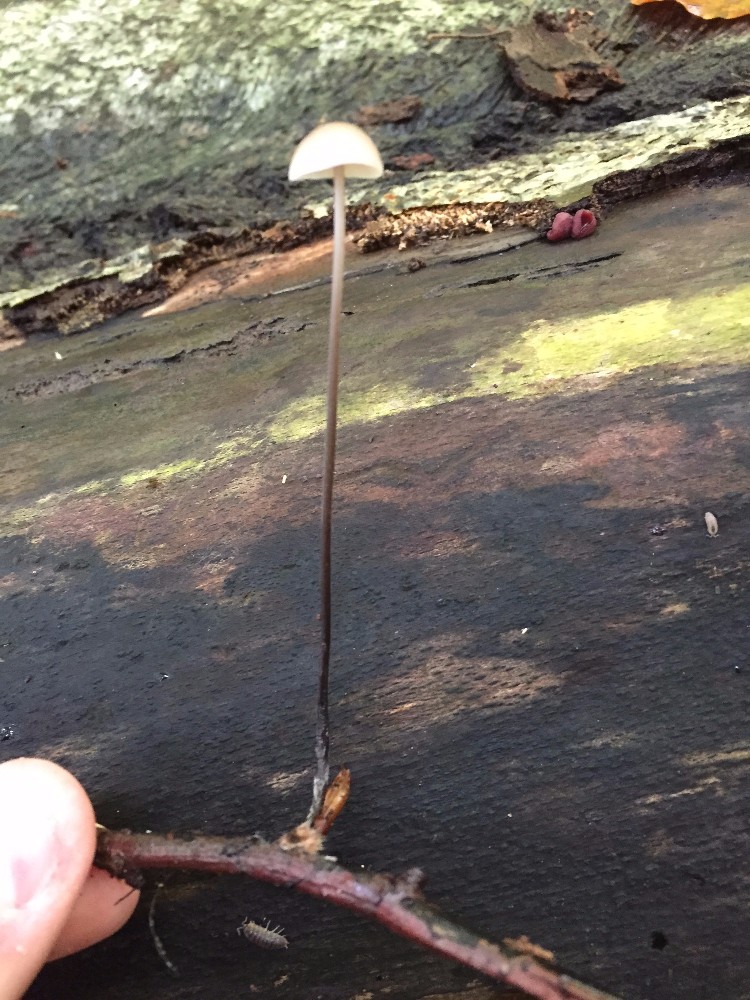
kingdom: Fungi
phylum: Basidiomycota
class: Agaricomycetes
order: Agaricales
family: Omphalotaceae
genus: Mycetinis
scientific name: Mycetinis alliaceus
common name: stor løghat
